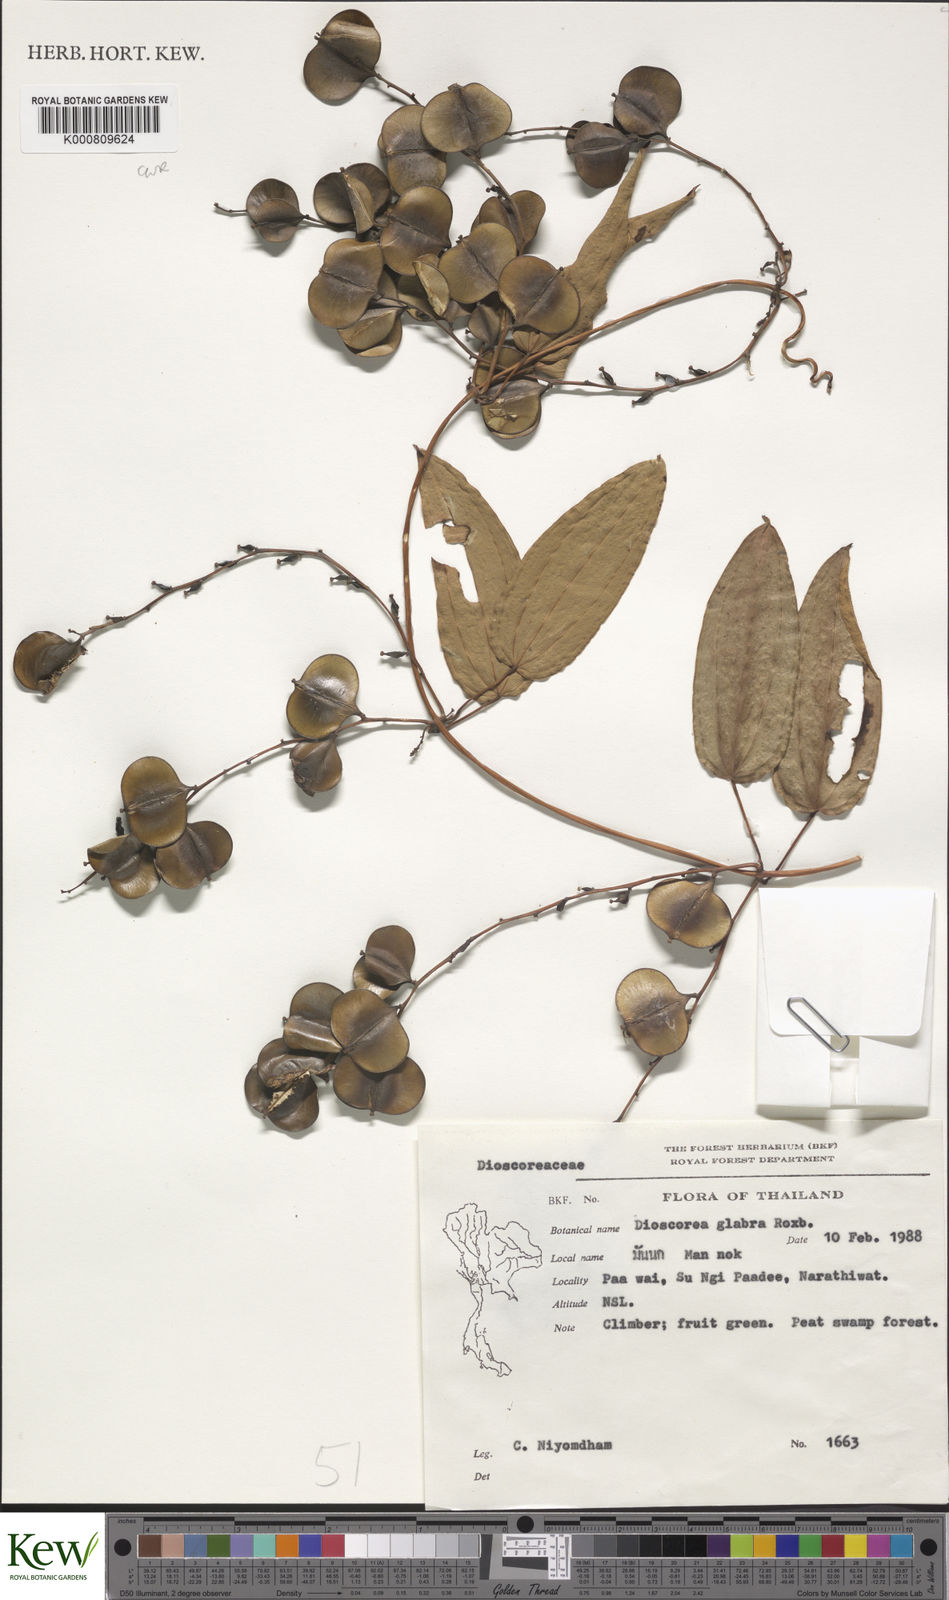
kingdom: Plantae
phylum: Tracheophyta
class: Liliopsida
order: Dioscoreales
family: Dioscoreaceae
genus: Dioscorea
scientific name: Dioscorea glabra
